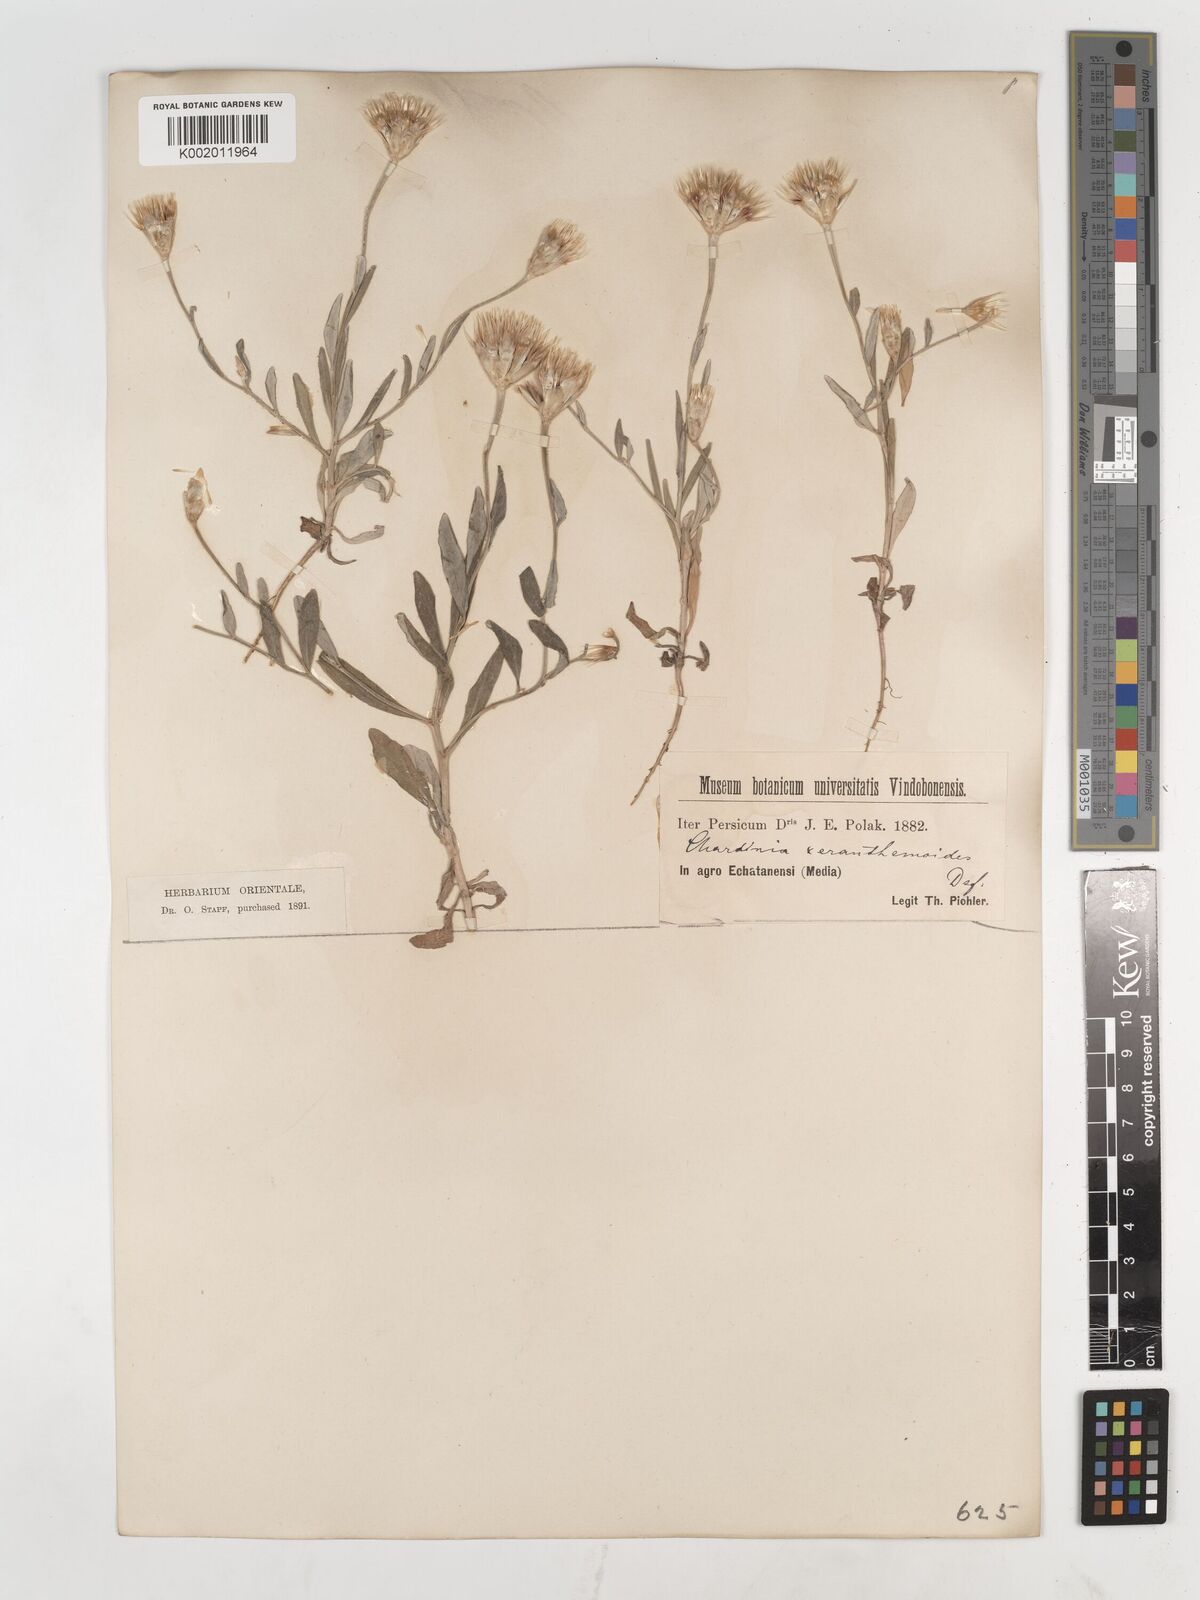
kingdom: Plantae
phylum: Tracheophyta
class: Magnoliopsida
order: Asterales
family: Asteraceae
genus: Chardinia
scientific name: Chardinia orientalis
